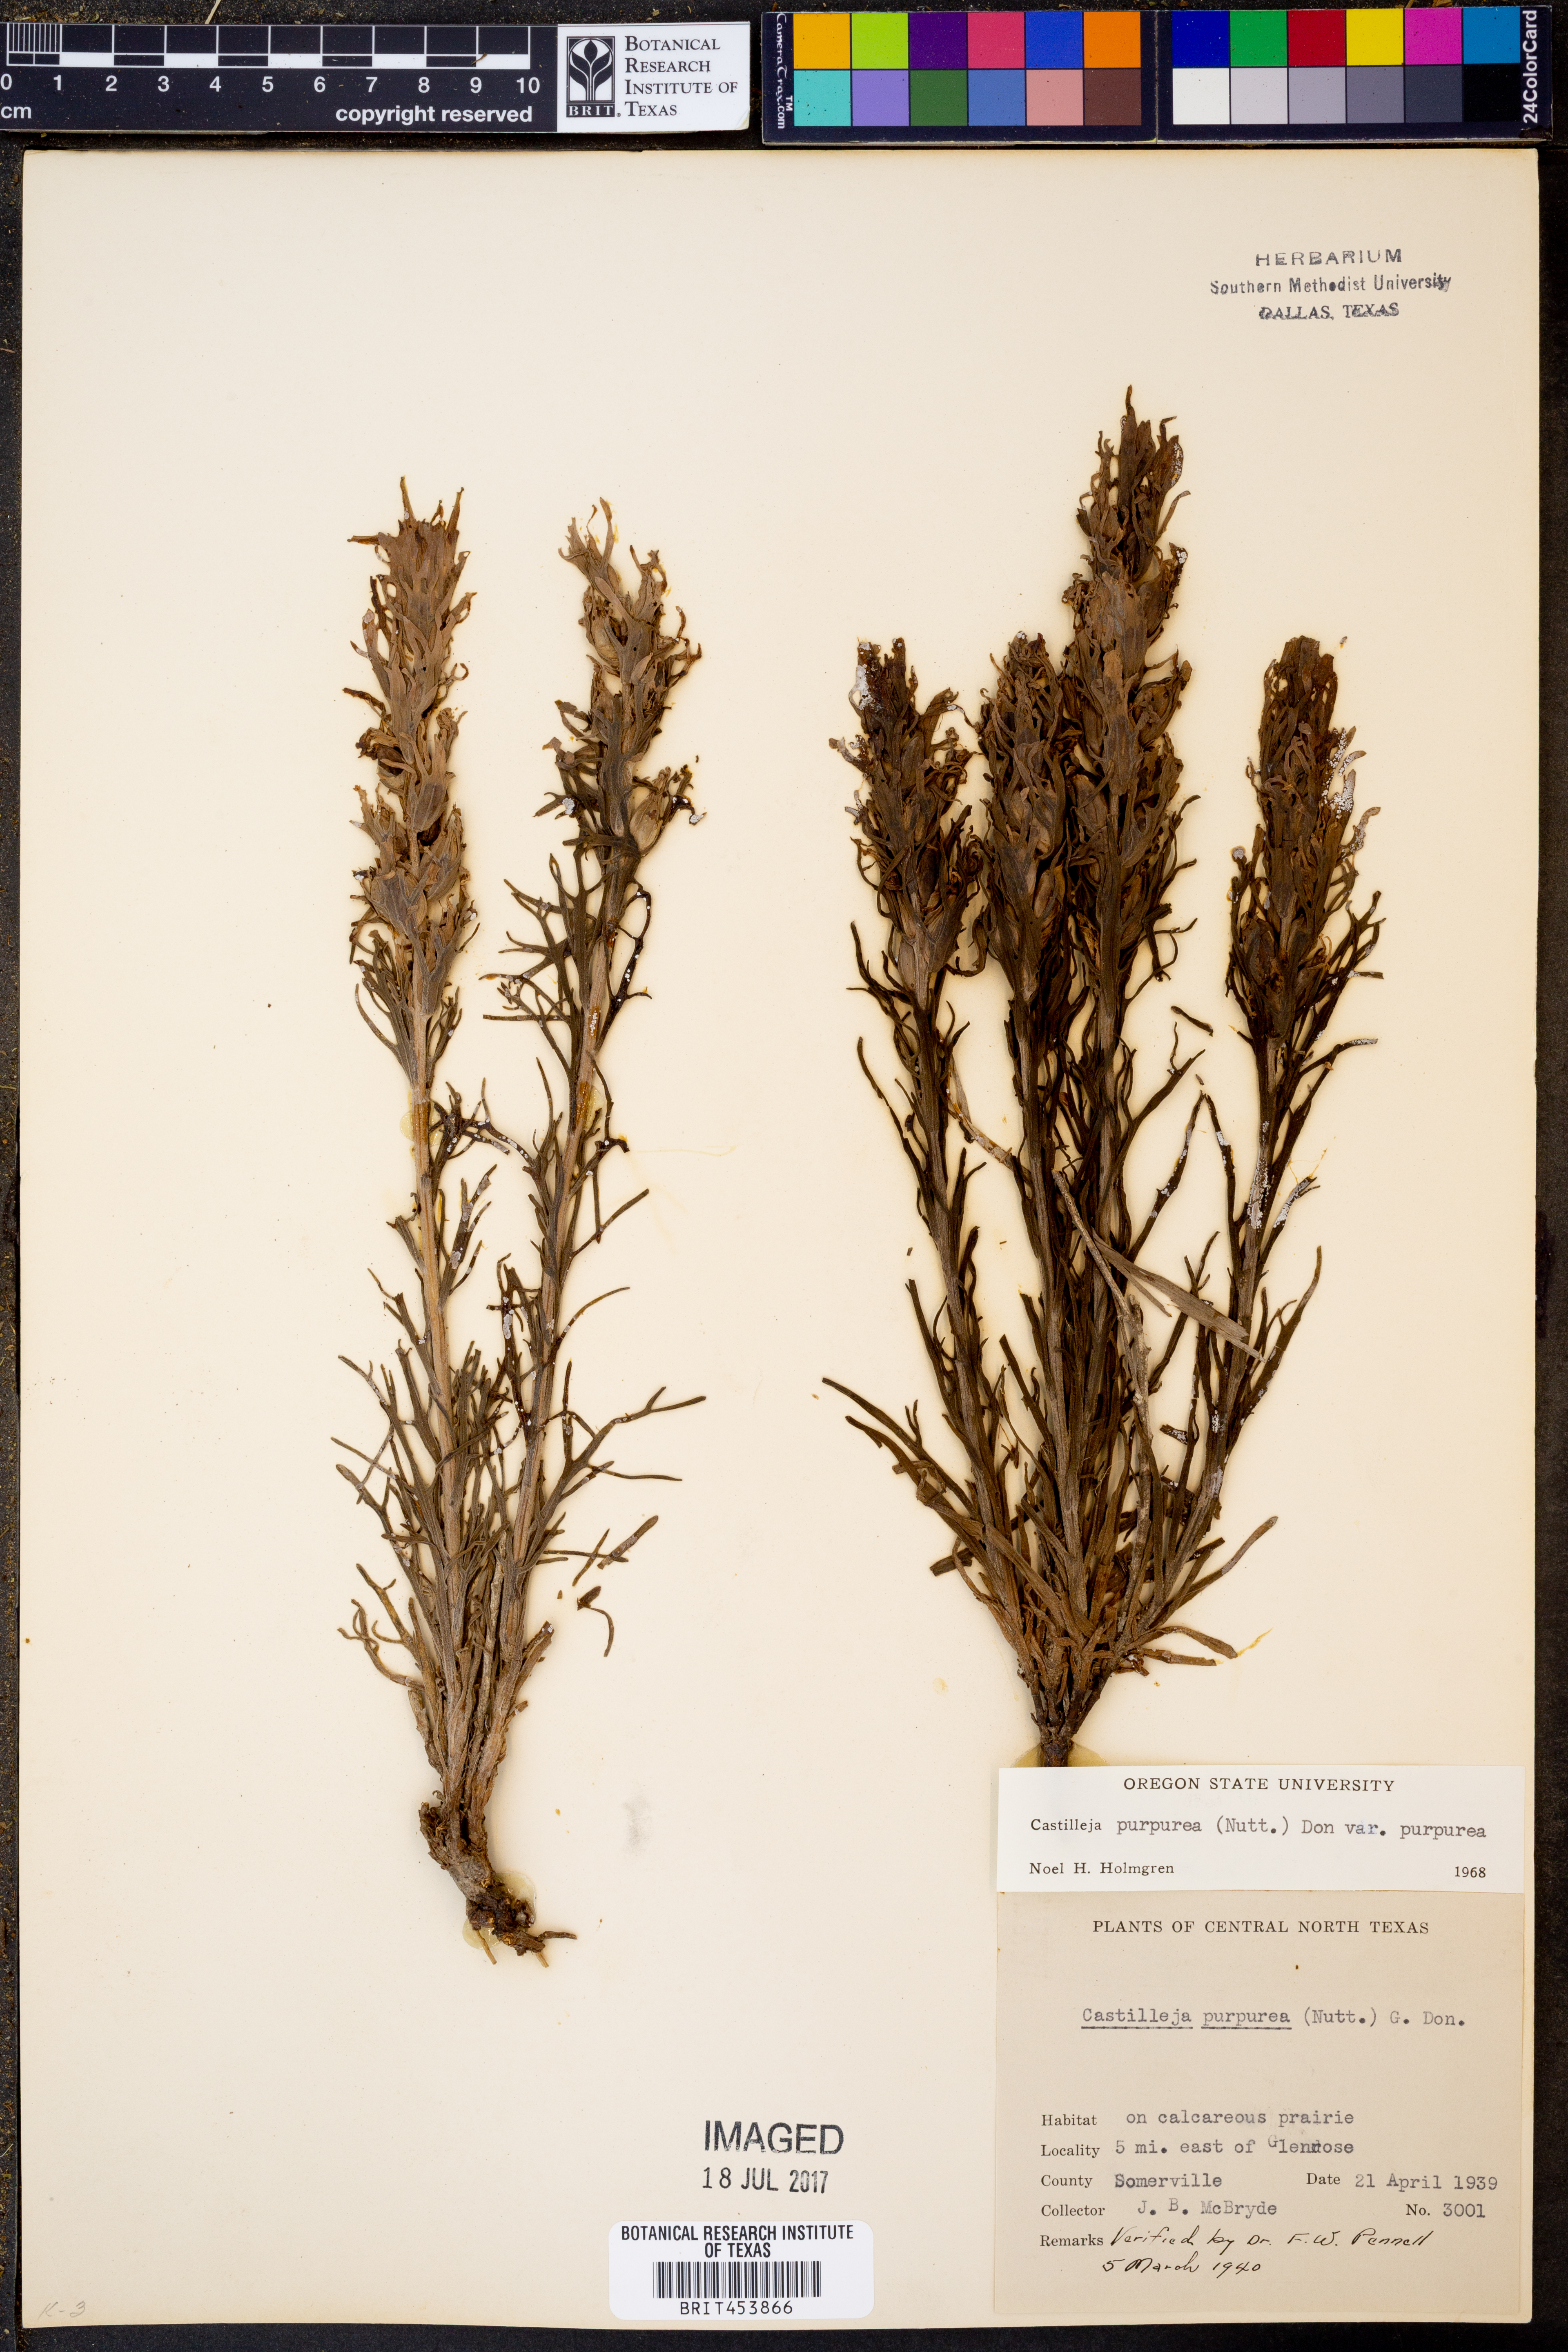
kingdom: Plantae
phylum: Tracheophyta
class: Magnoliopsida
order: Lamiales
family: Orobanchaceae
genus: Castilleja
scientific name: Castilleja purpurea
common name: Plains paintbrush
